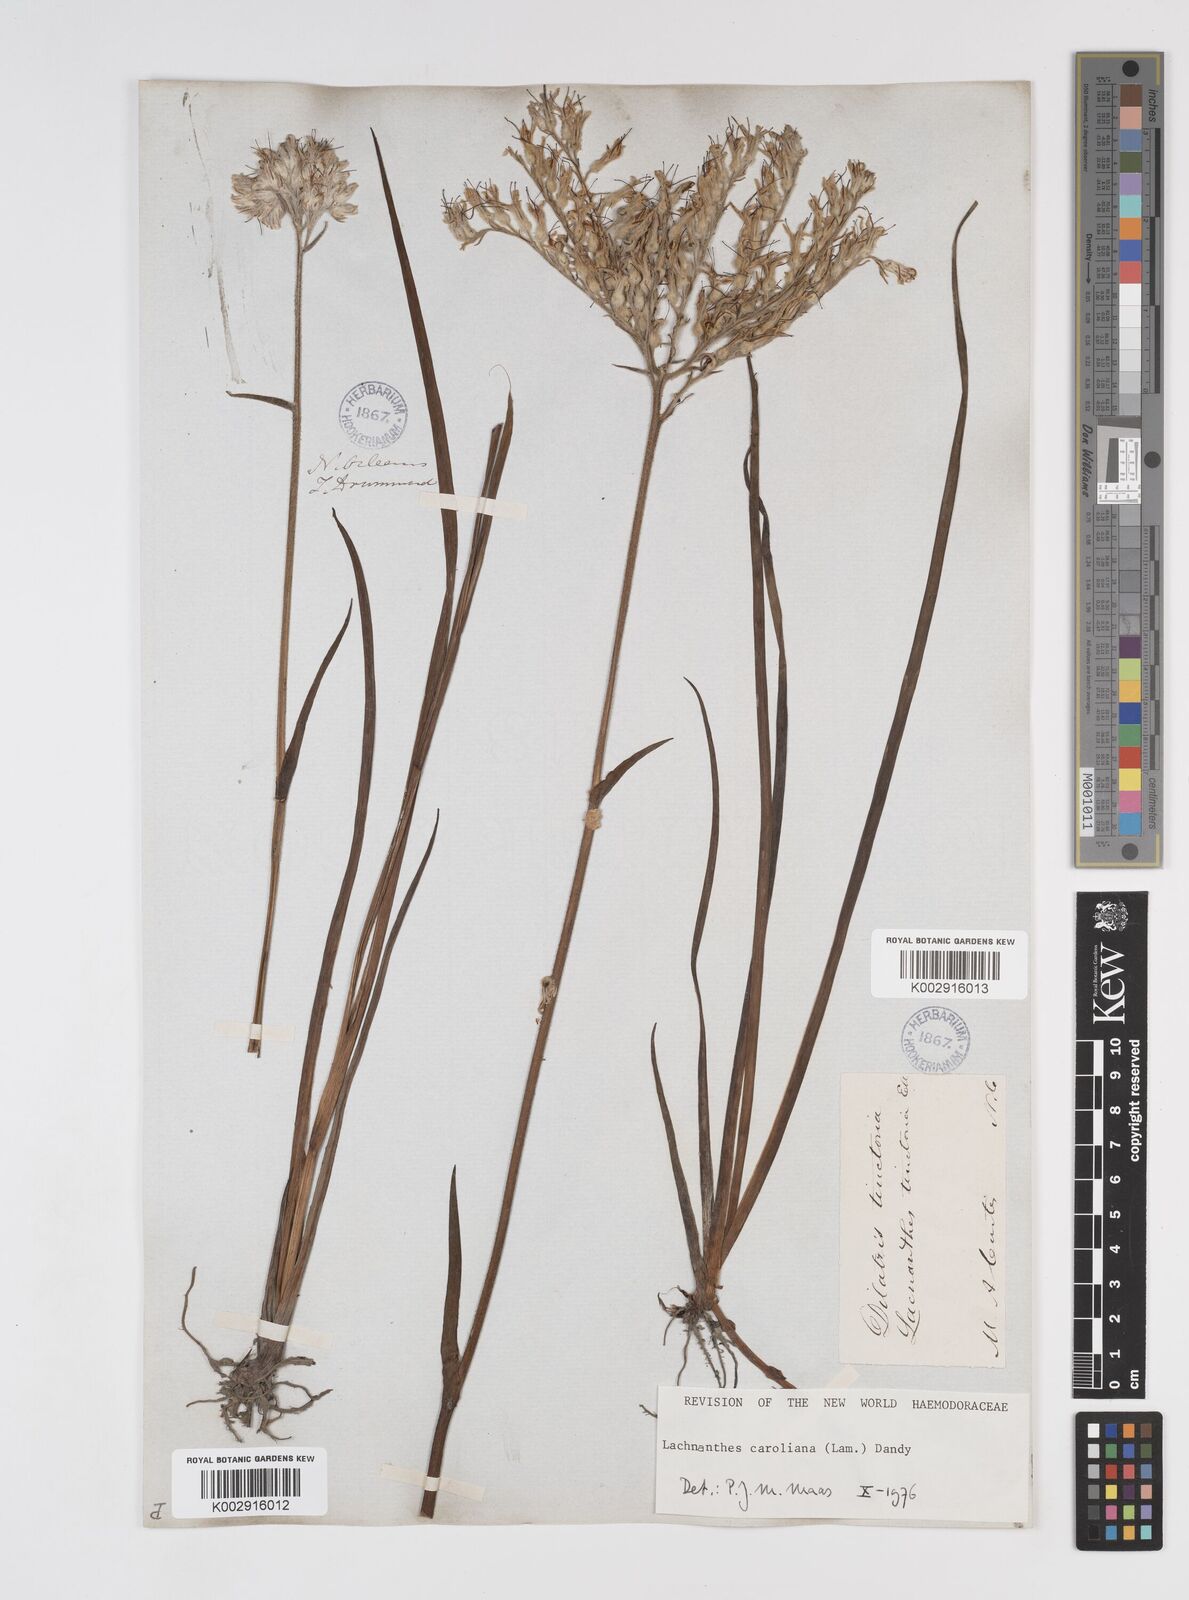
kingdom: Plantae
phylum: Tracheophyta
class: Liliopsida
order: Commelinales
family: Haemodoraceae
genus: Lachnanthes
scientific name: Lachnanthes caroliniana
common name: Carolina redroot
